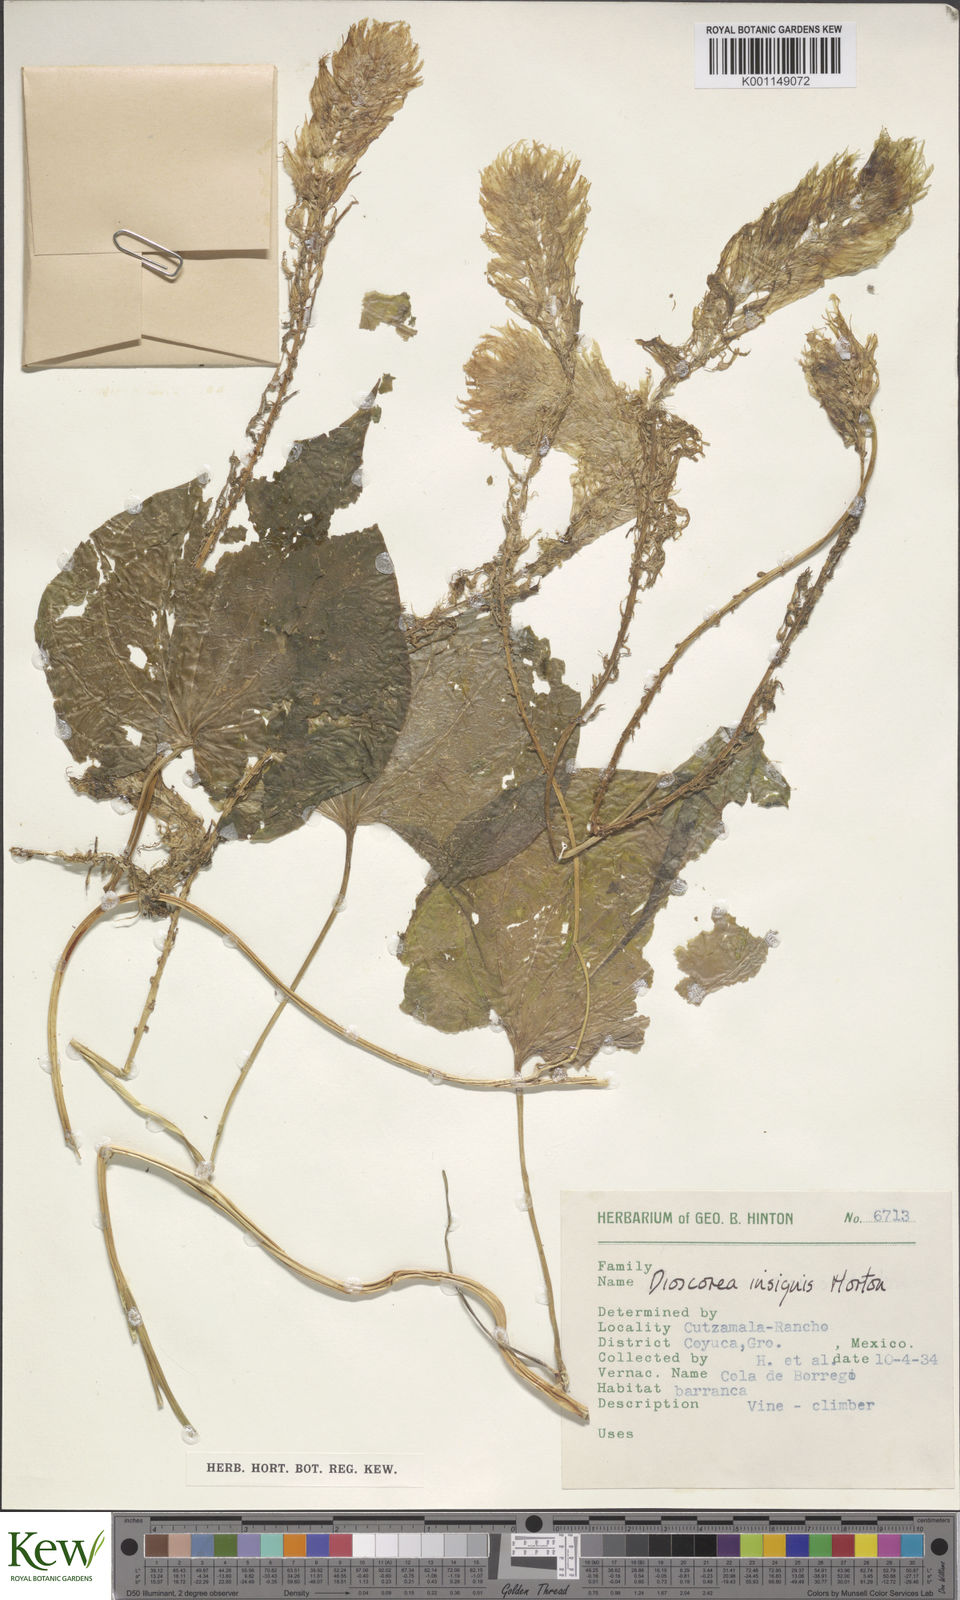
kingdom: Plantae
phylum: Tracheophyta
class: Liliopsida
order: Dioscoreales
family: Dioscoreaceae
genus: Dioscorea
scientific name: Dioscorea insignis
